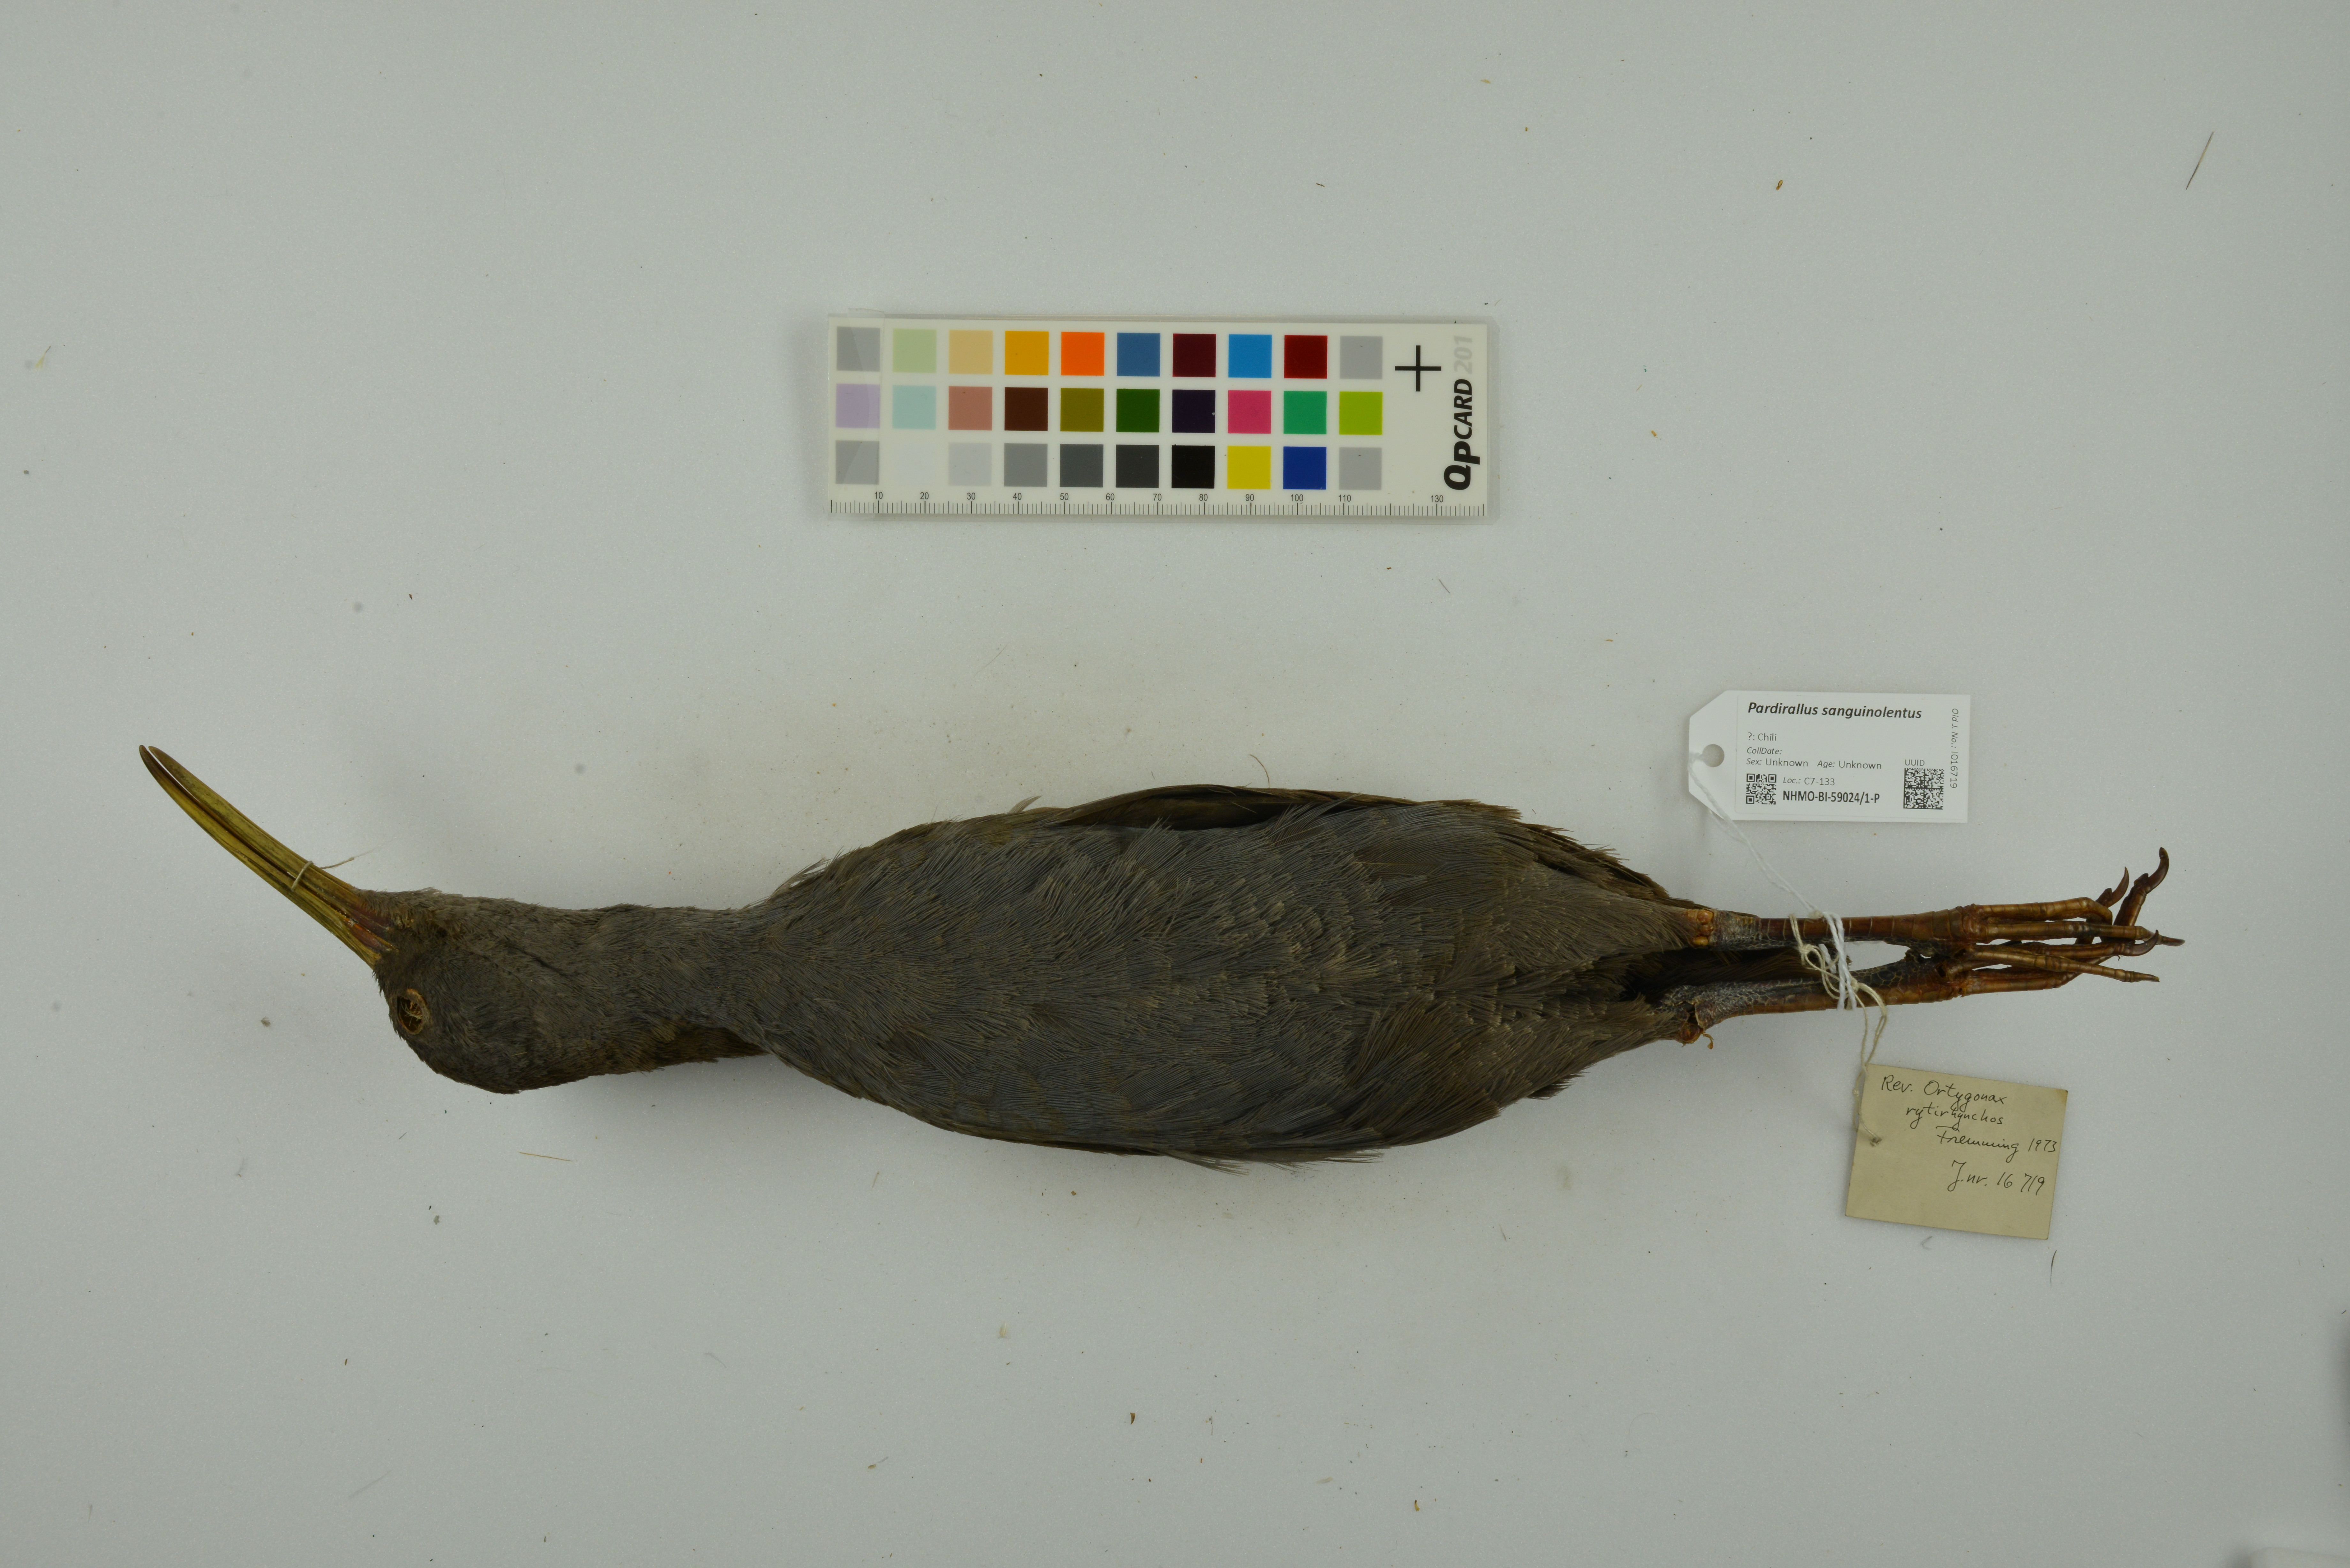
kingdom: Animalia
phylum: Chordata
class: Aves
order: Gruiformes
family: Rallidae
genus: Pardirallus
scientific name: Pardirallus sanguinolentus
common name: Plumbeous rail
